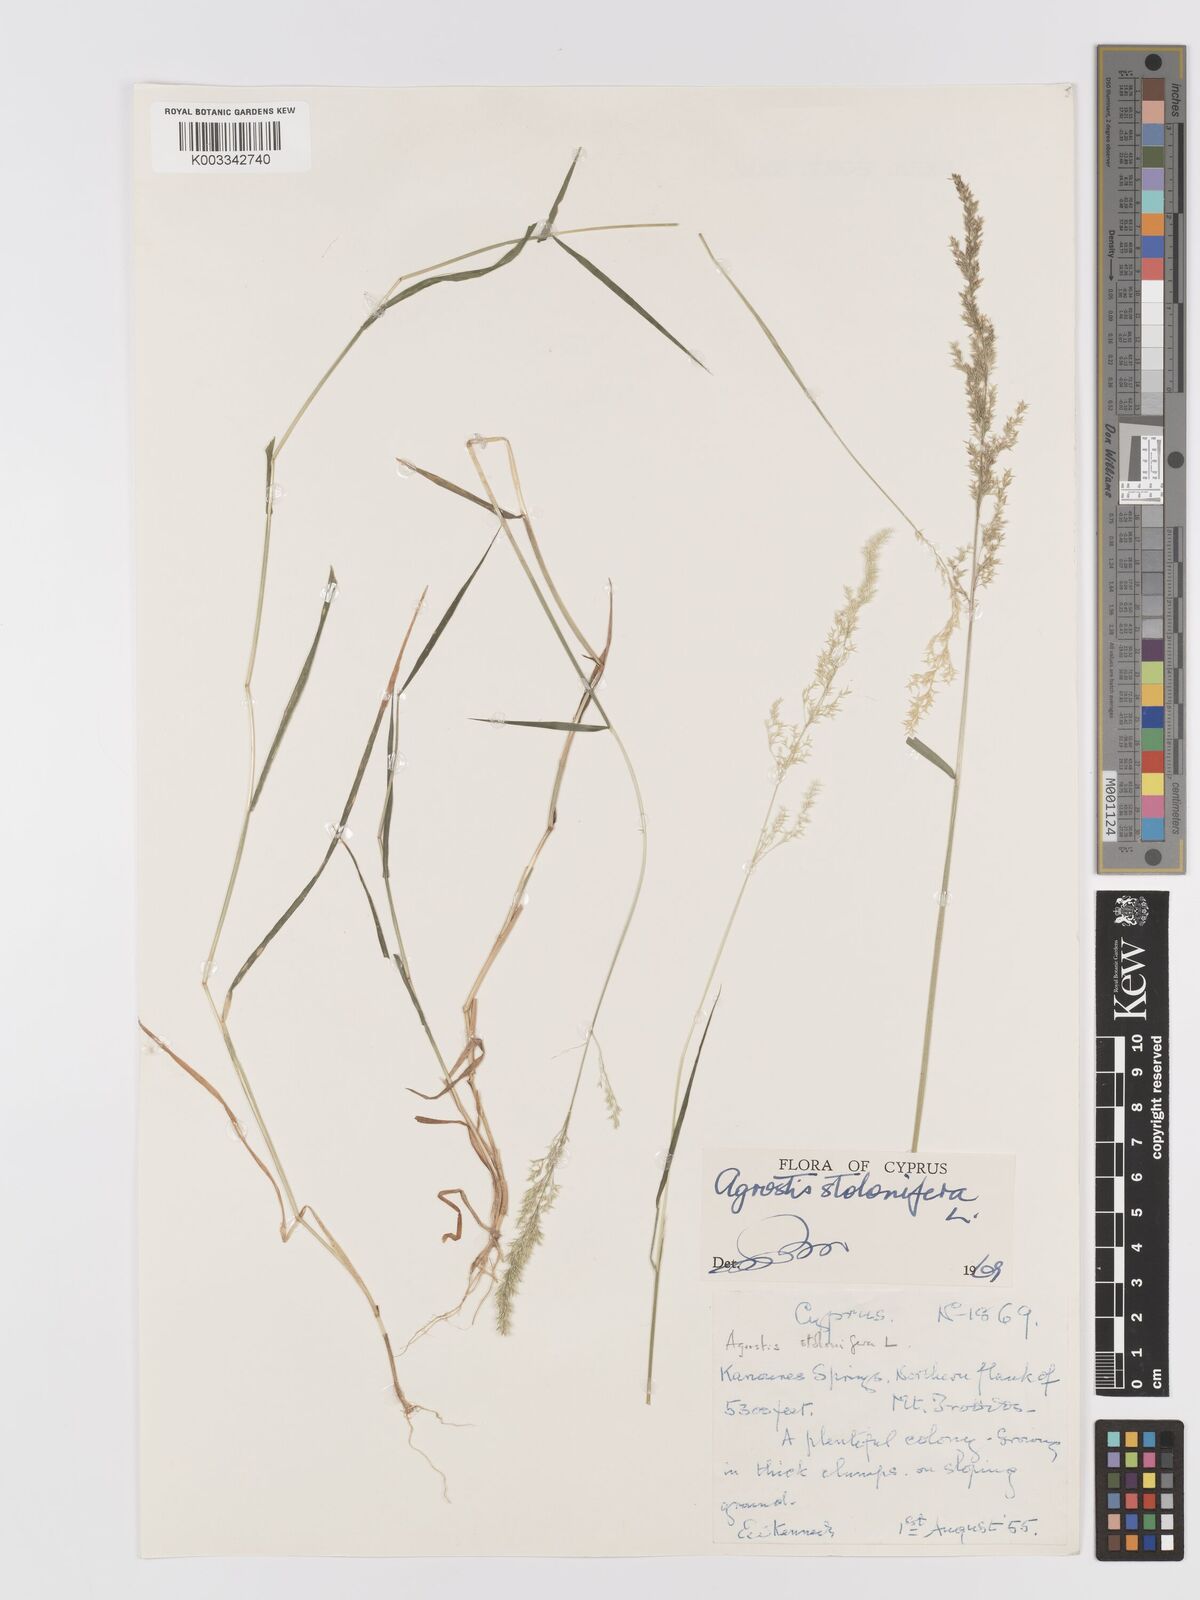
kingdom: Plantae
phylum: Tracheophyta
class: Liliopsida
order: Poales
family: Poaceae
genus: Agrostis
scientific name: Agrostis stolonifera
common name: Creeping bentgrass
